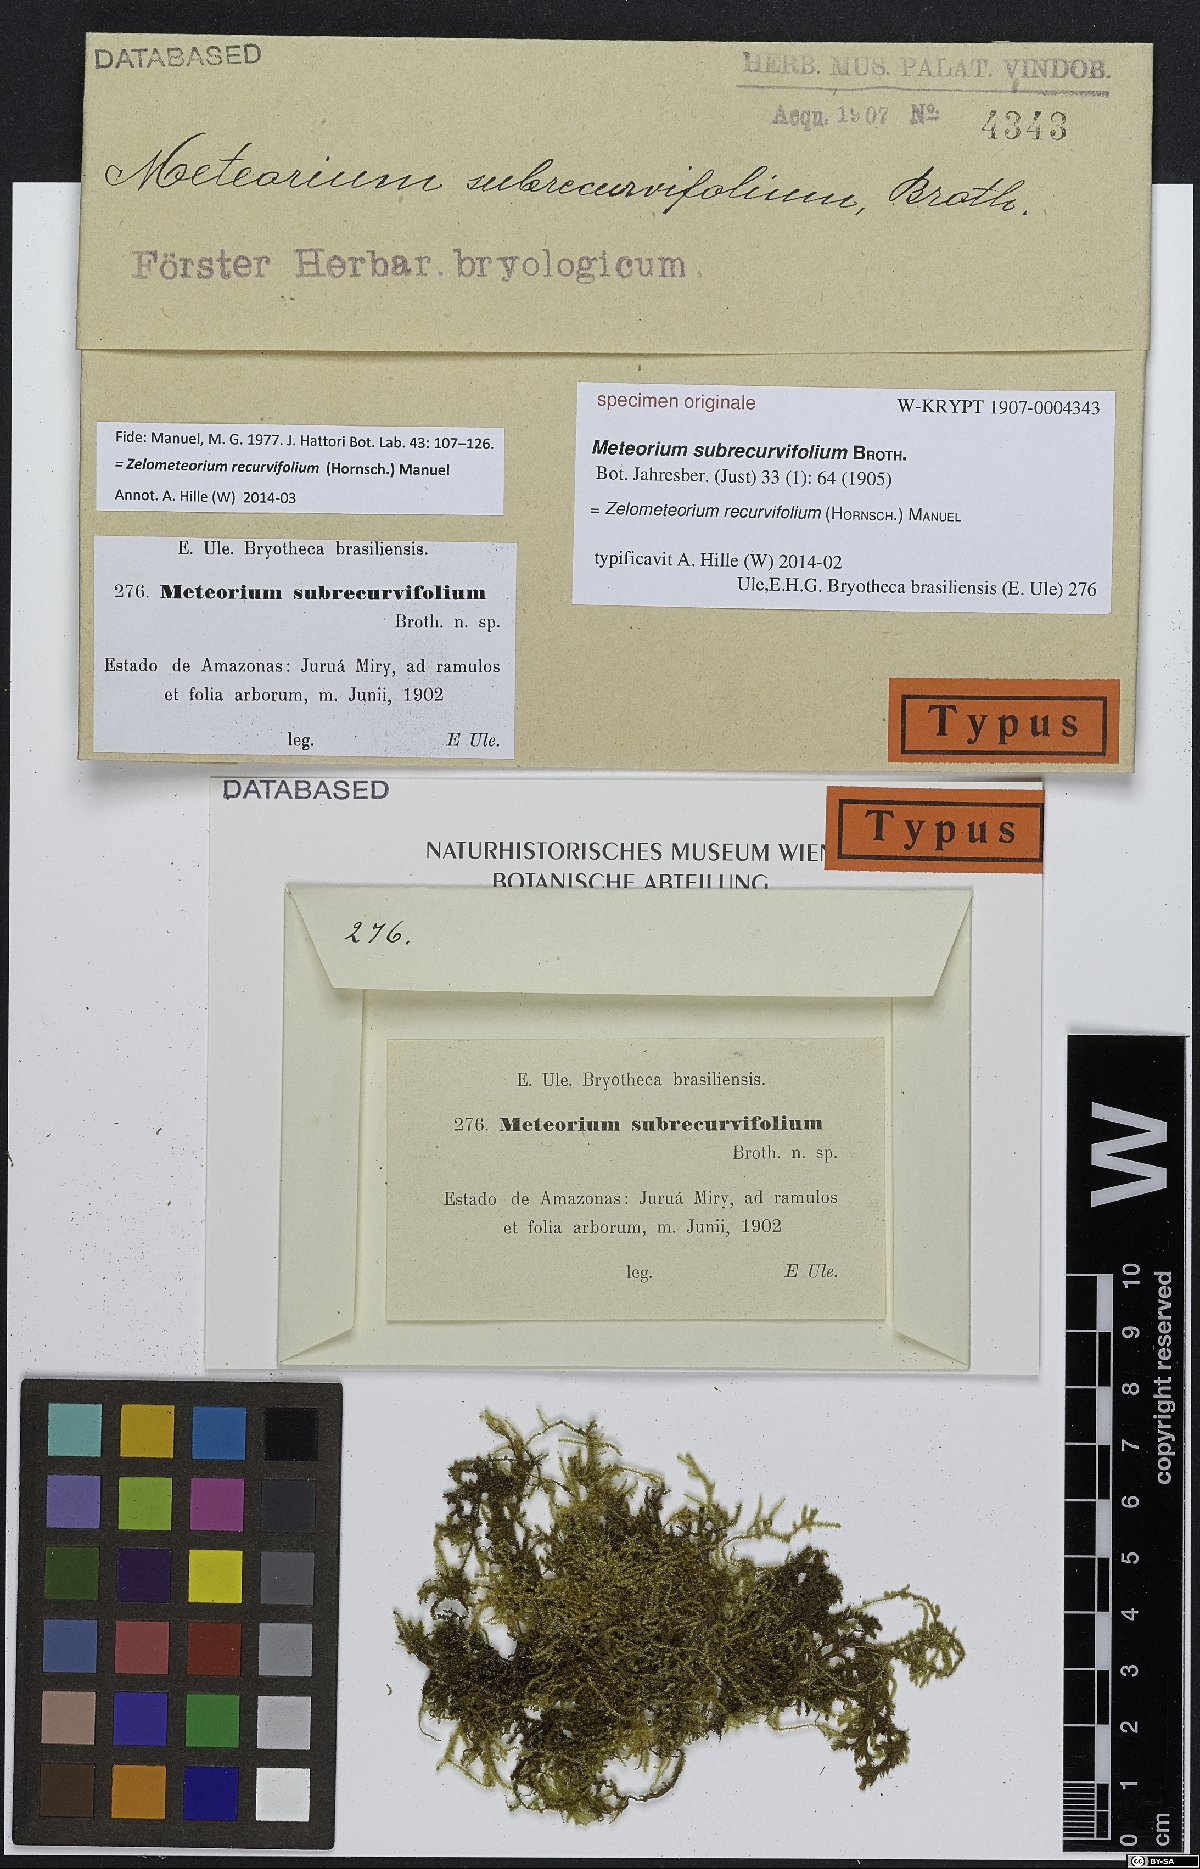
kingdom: Plantae
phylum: Bryophyta
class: Bryopsida
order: Hypnales
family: Meteoriaceae
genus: Meteorium
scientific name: Meteorium
